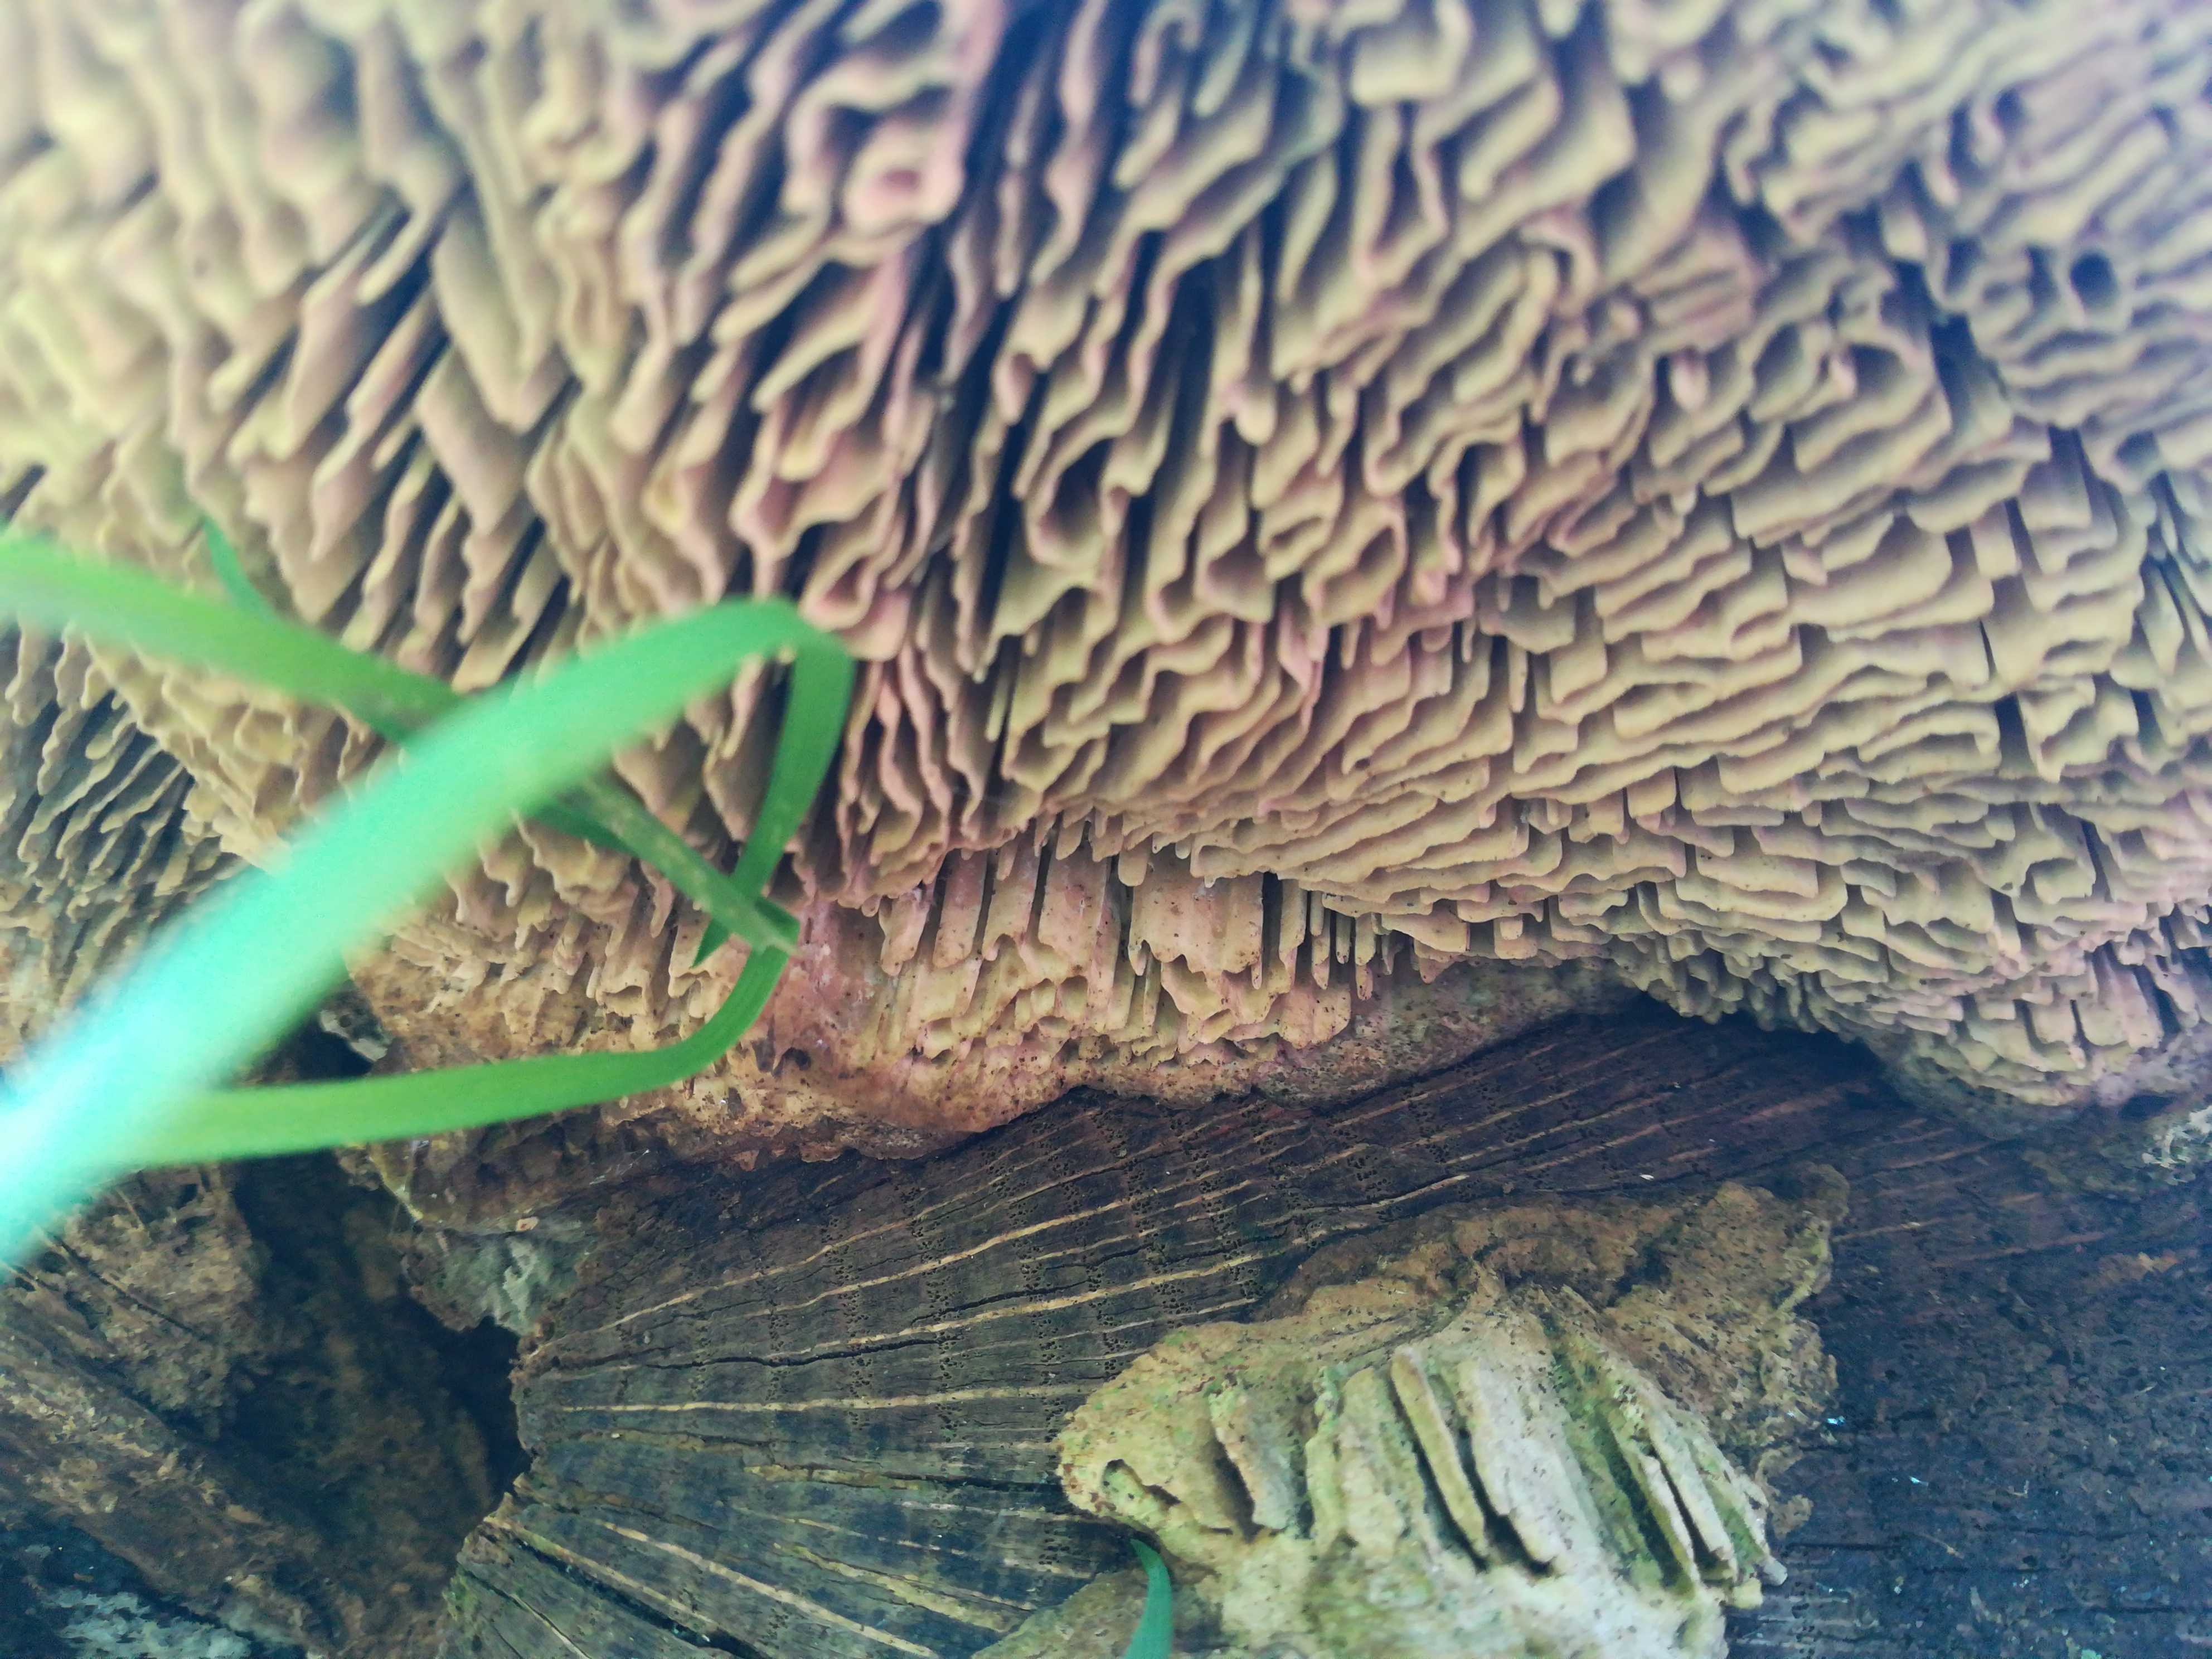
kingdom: Fungi
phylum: Basidiomycota
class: Agaricomycetes
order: Polyporales
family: Fomitopsidaceae
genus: Daedalea
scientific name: Daedalea quercina
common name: ege-labyrintsvamp
